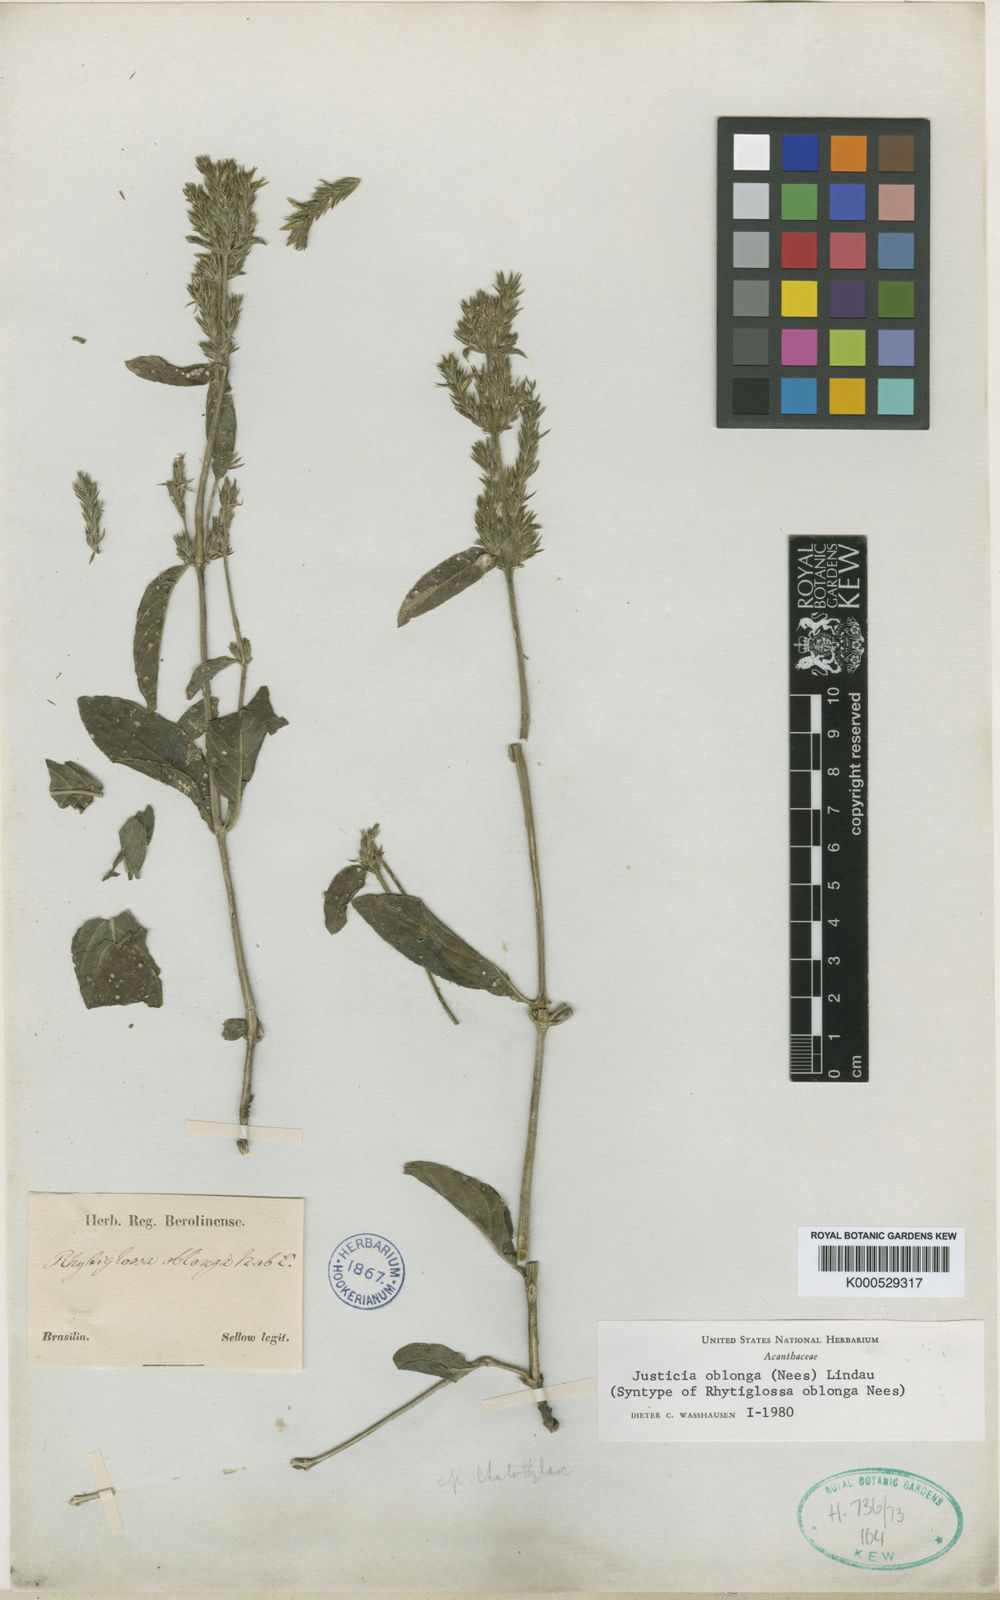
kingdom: Plantae
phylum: Tracheophyta
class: Magnoliopsida
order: Lamiales
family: Acanthaceae
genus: Dianthera
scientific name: Dianthera oblonga
